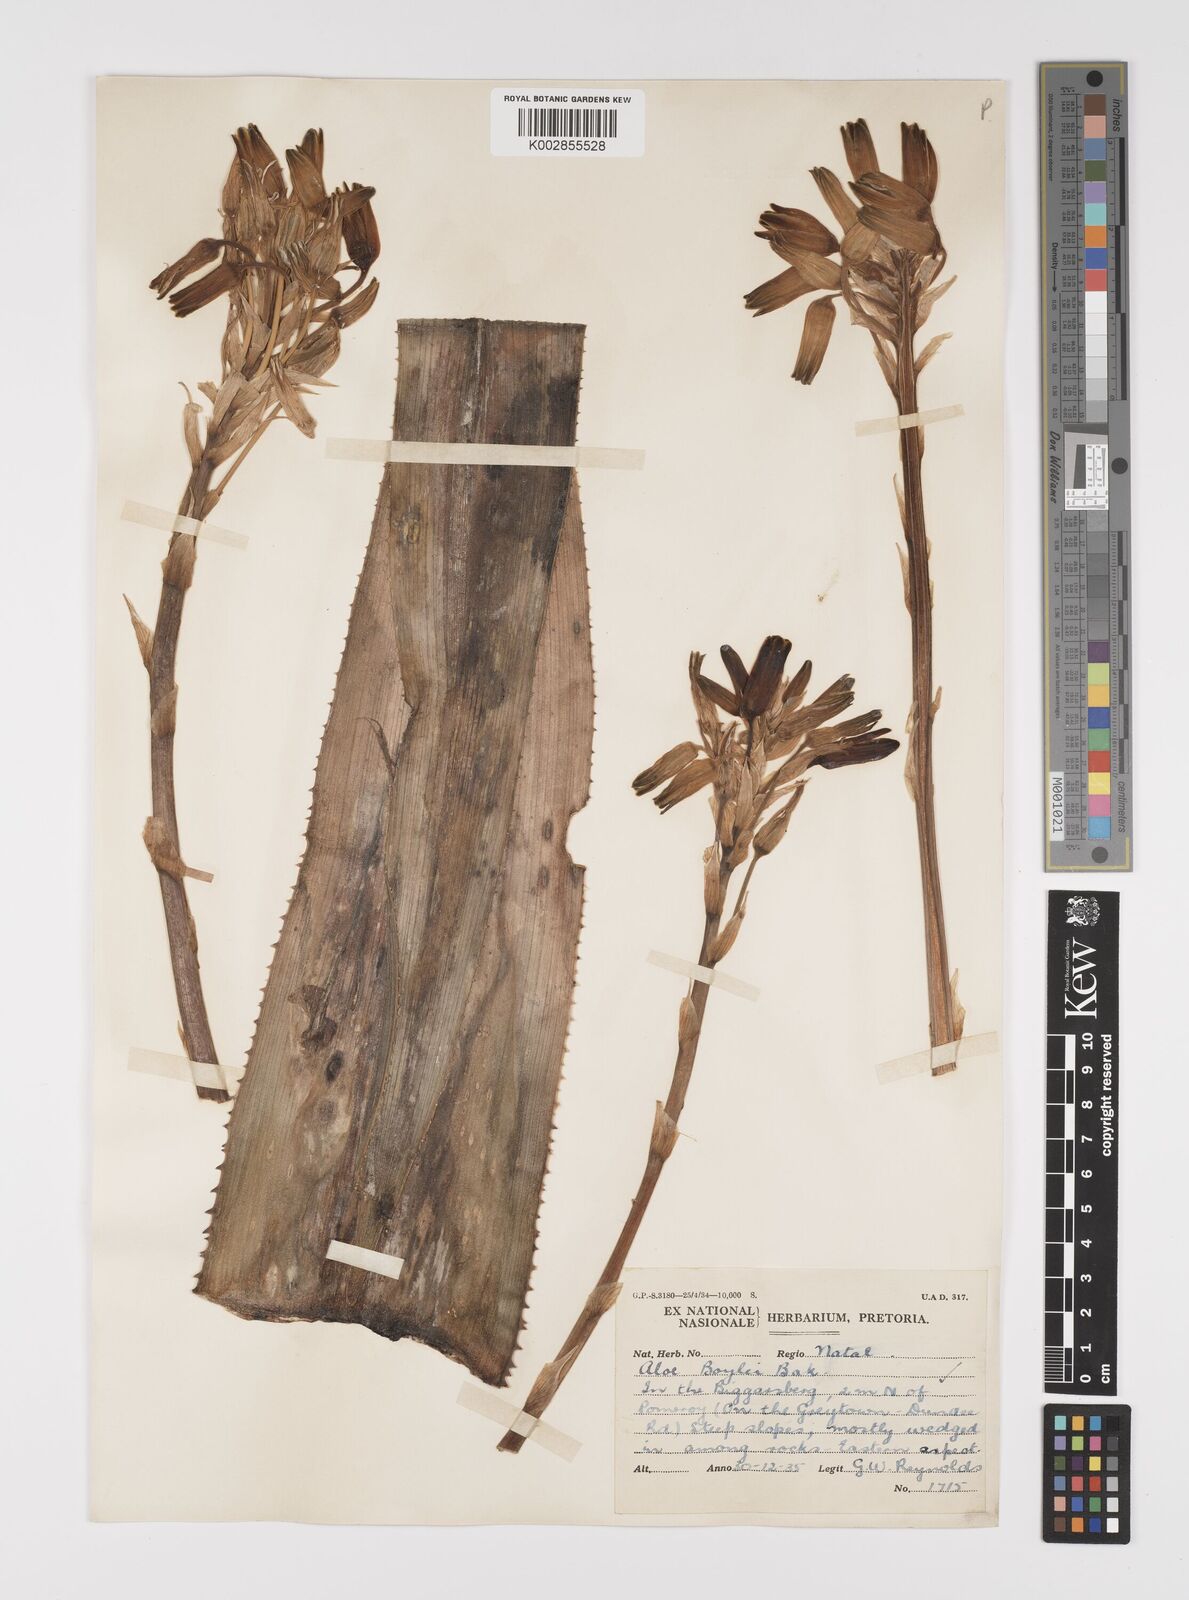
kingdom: Plantae
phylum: Tracheophyta
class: Liliopsida
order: Asparagales
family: Asphodelaceae
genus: Aloe
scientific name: Aloe boylei
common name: Broad-leaved grass aloe
